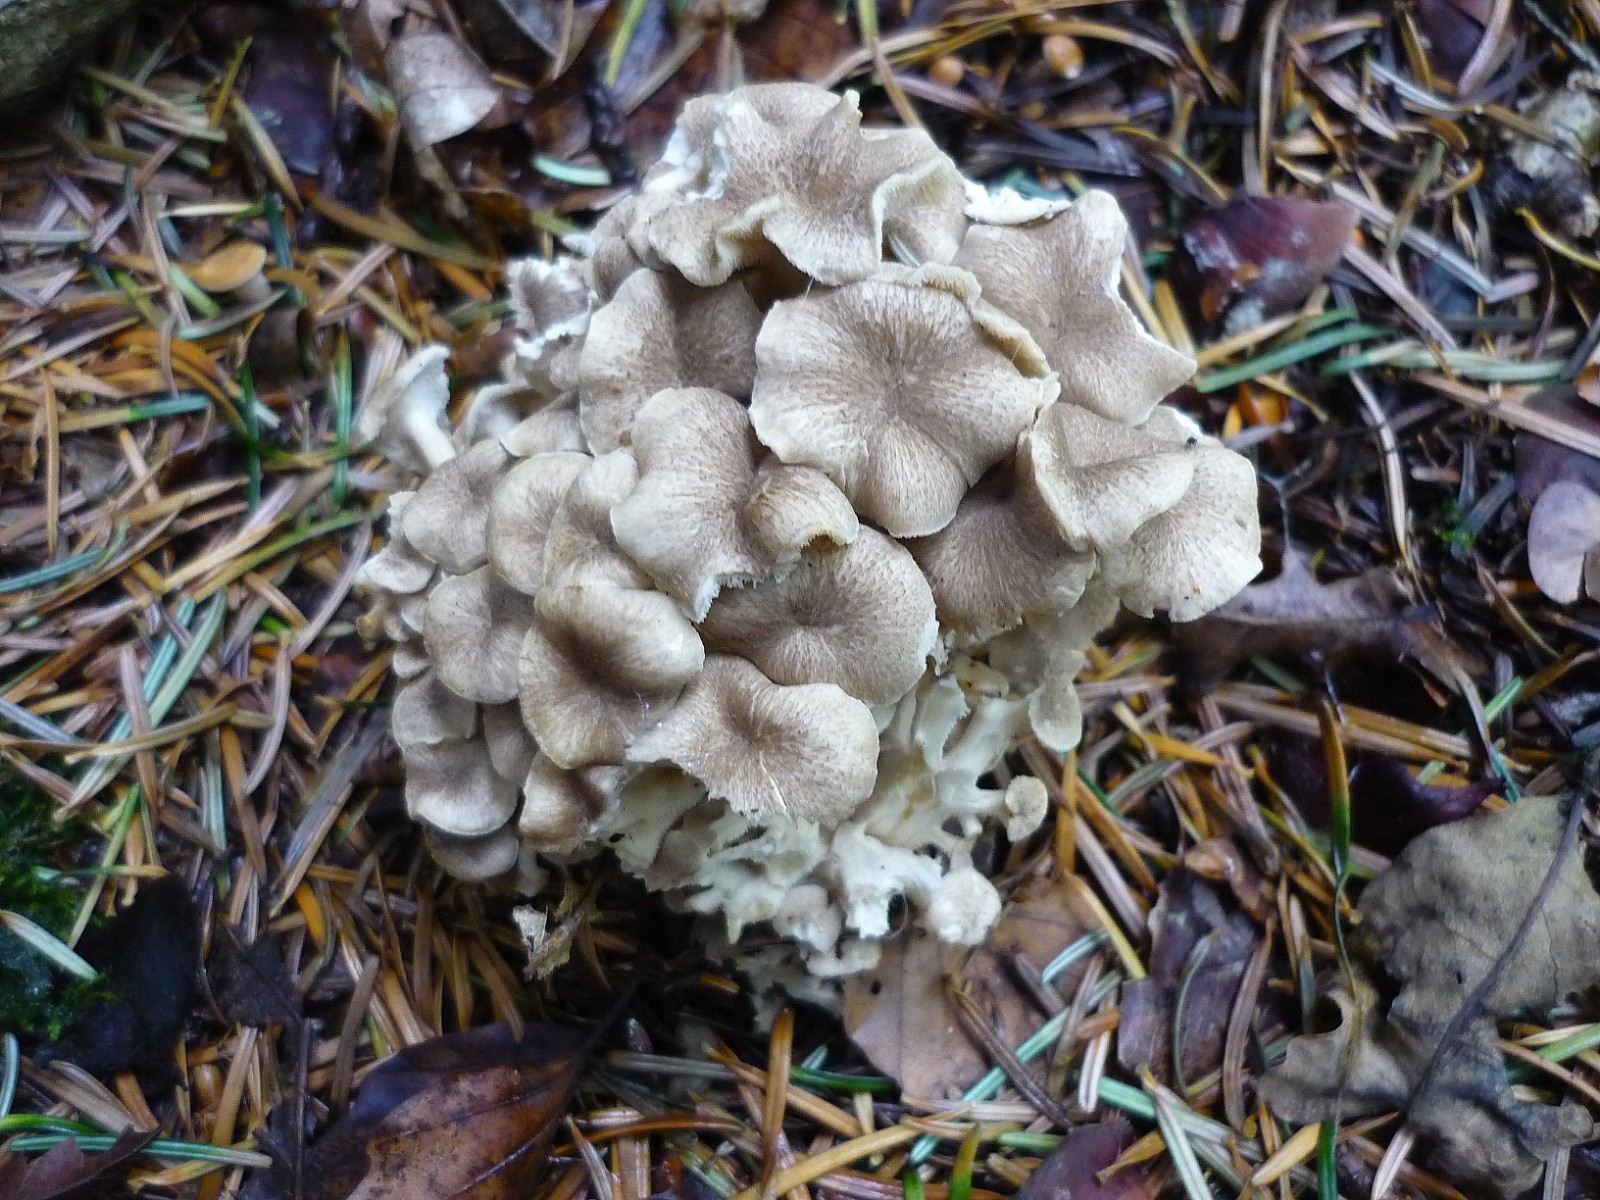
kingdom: Fungi
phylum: Basidiomycota
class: Agaricomycetes
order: Polyporales
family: Polyporaceae
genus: Polyporus
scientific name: Polyporus umbellatus
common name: skærmformet stilkporesvamp
